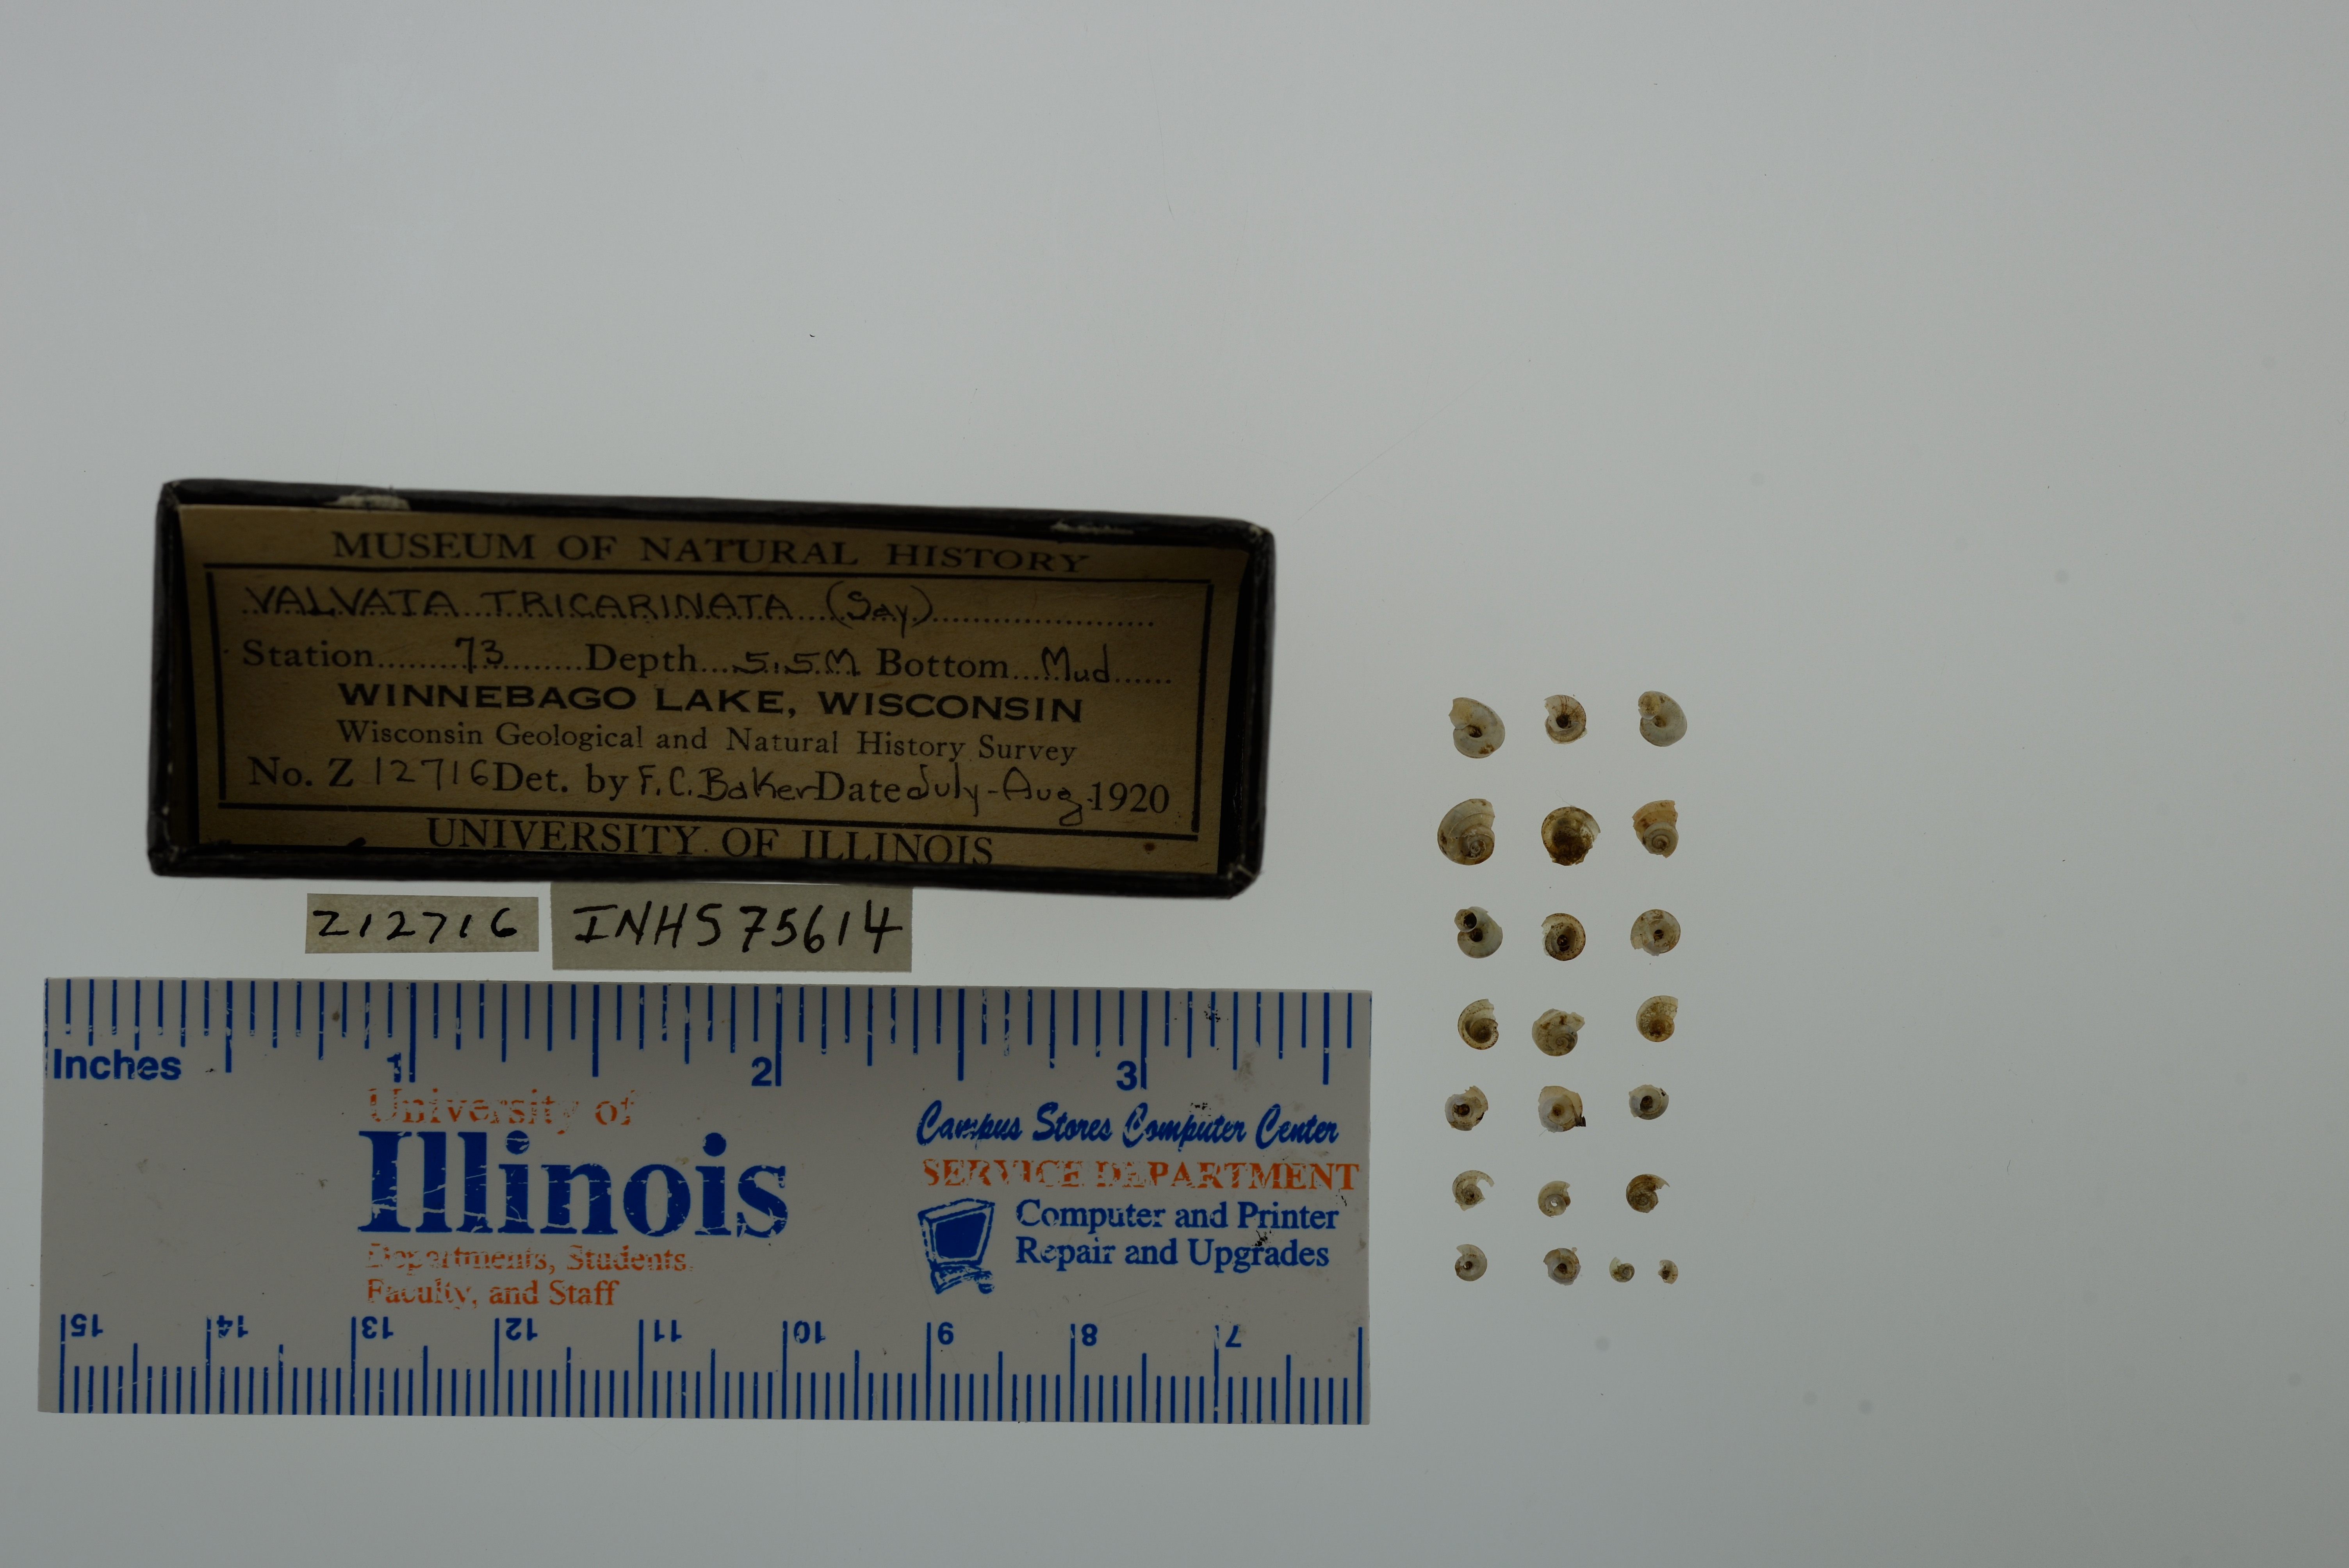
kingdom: Animalia
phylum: Mollusca
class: Gastropoda
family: Valvatidae
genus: Valvata
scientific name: Valvata tricarinata
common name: Three-ridge valvata
